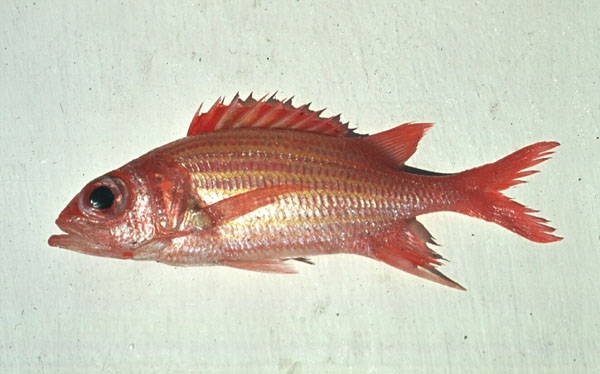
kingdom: Animalia
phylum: Chordata
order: Beryciformes
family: Holocentridae
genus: Neoniphon
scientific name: Neoniphon aurolineatus
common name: Yellowstriped squirrelfish
